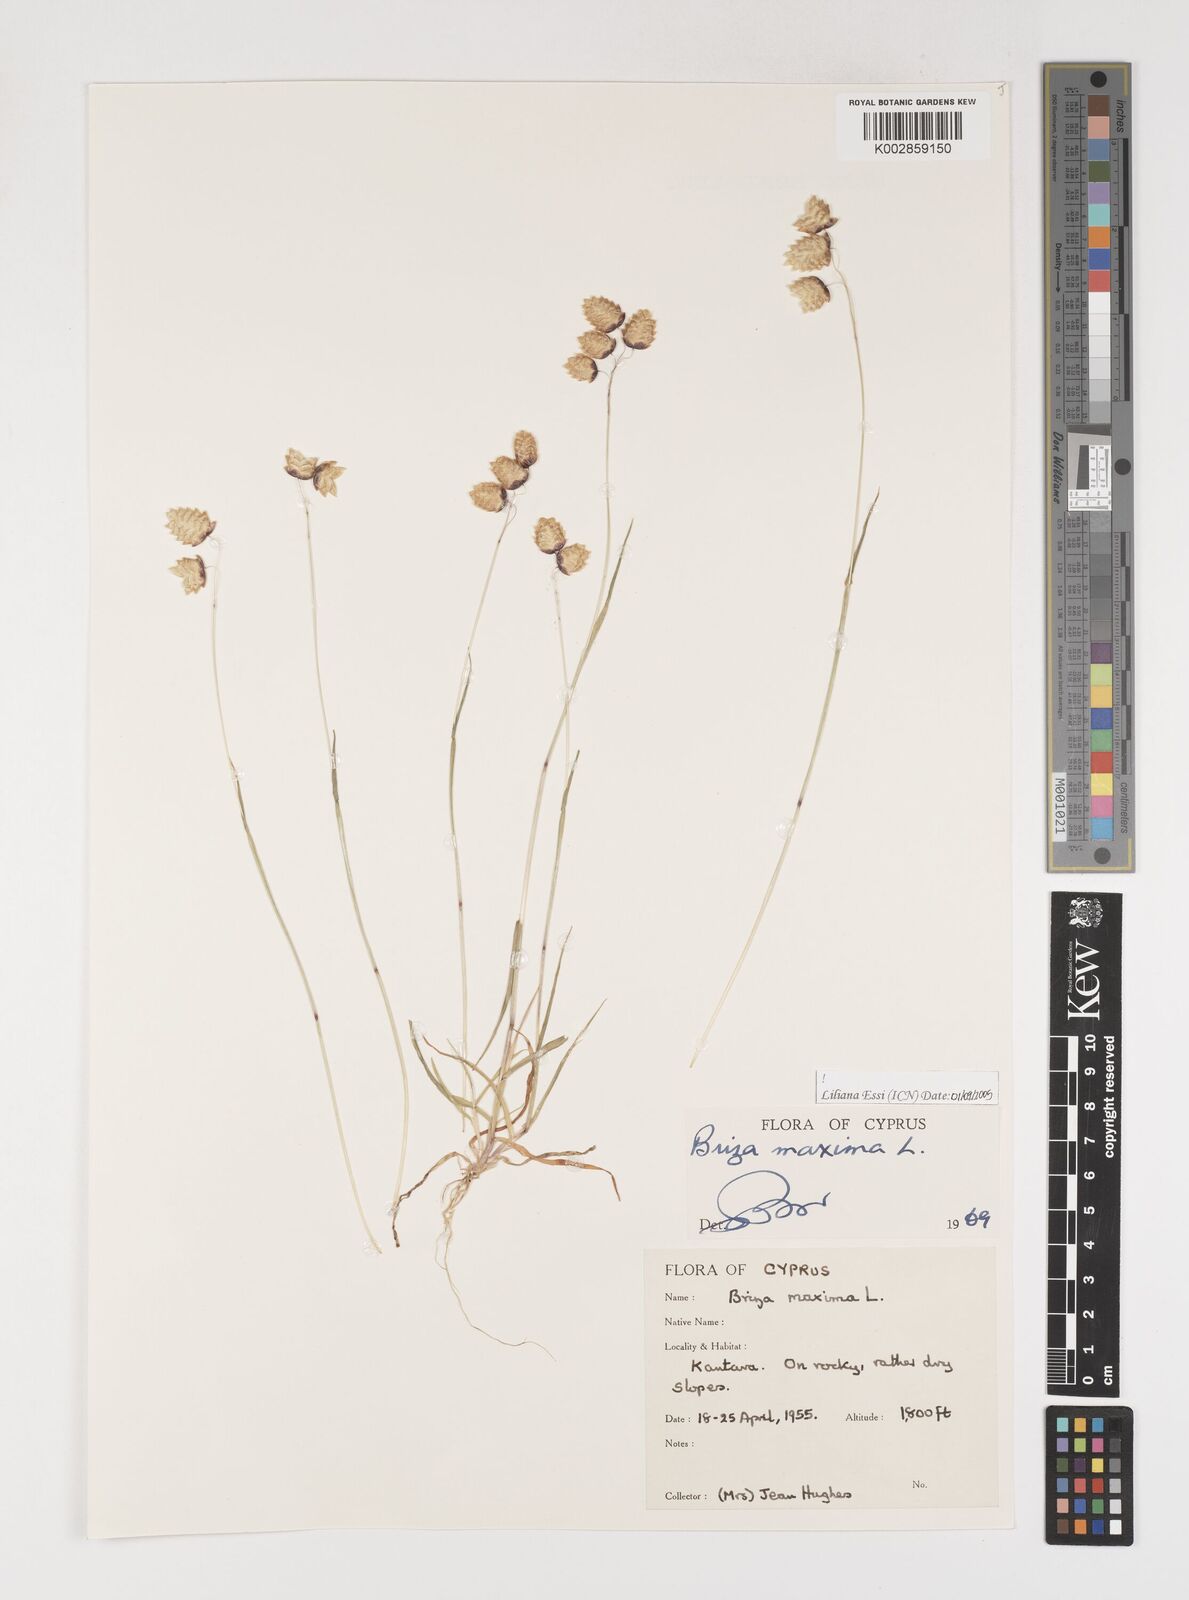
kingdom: Plantae
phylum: Tracheophyta
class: Liliopsida
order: Poales
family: Poaceae
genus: Briza
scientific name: Briza media
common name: Quaking grass
